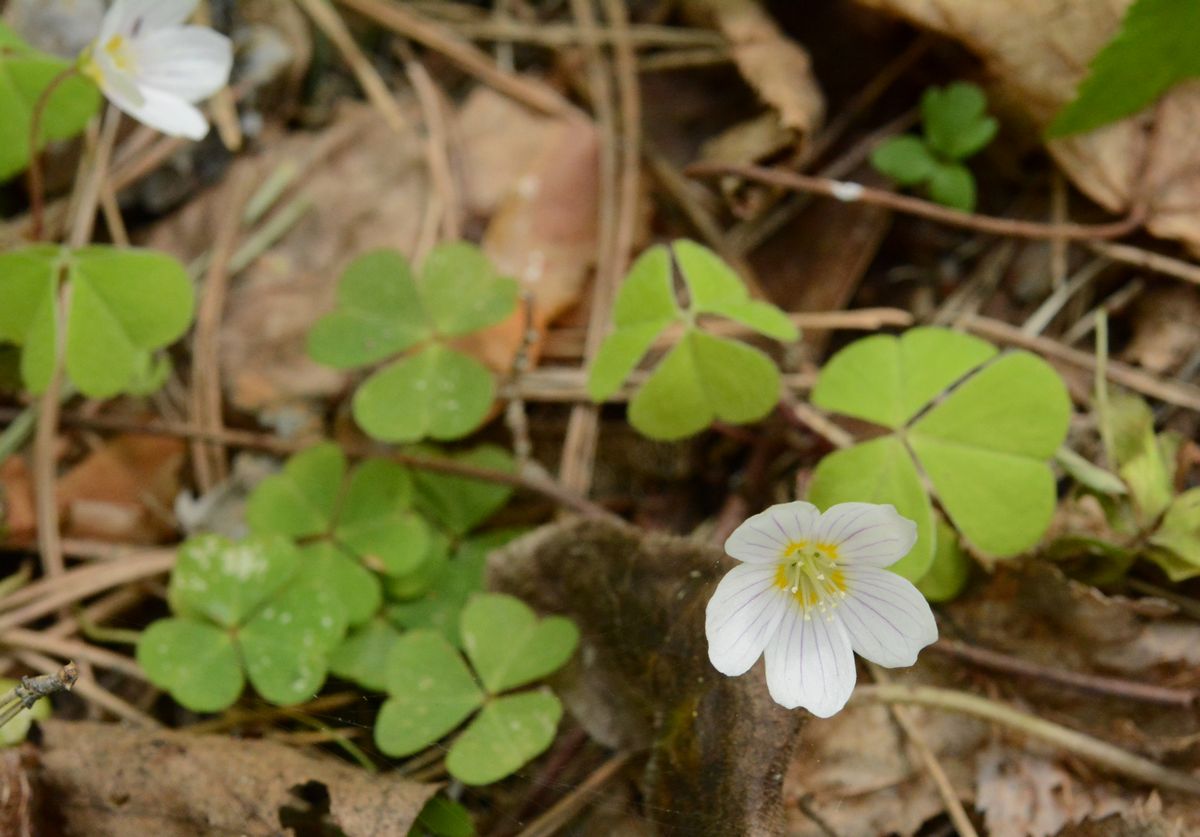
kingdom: Plantae
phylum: Tracheophyta
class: Magnoliopsida
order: Oxalidales
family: Oxalidaceae
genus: Oxalis
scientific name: Oxalis acetosella
